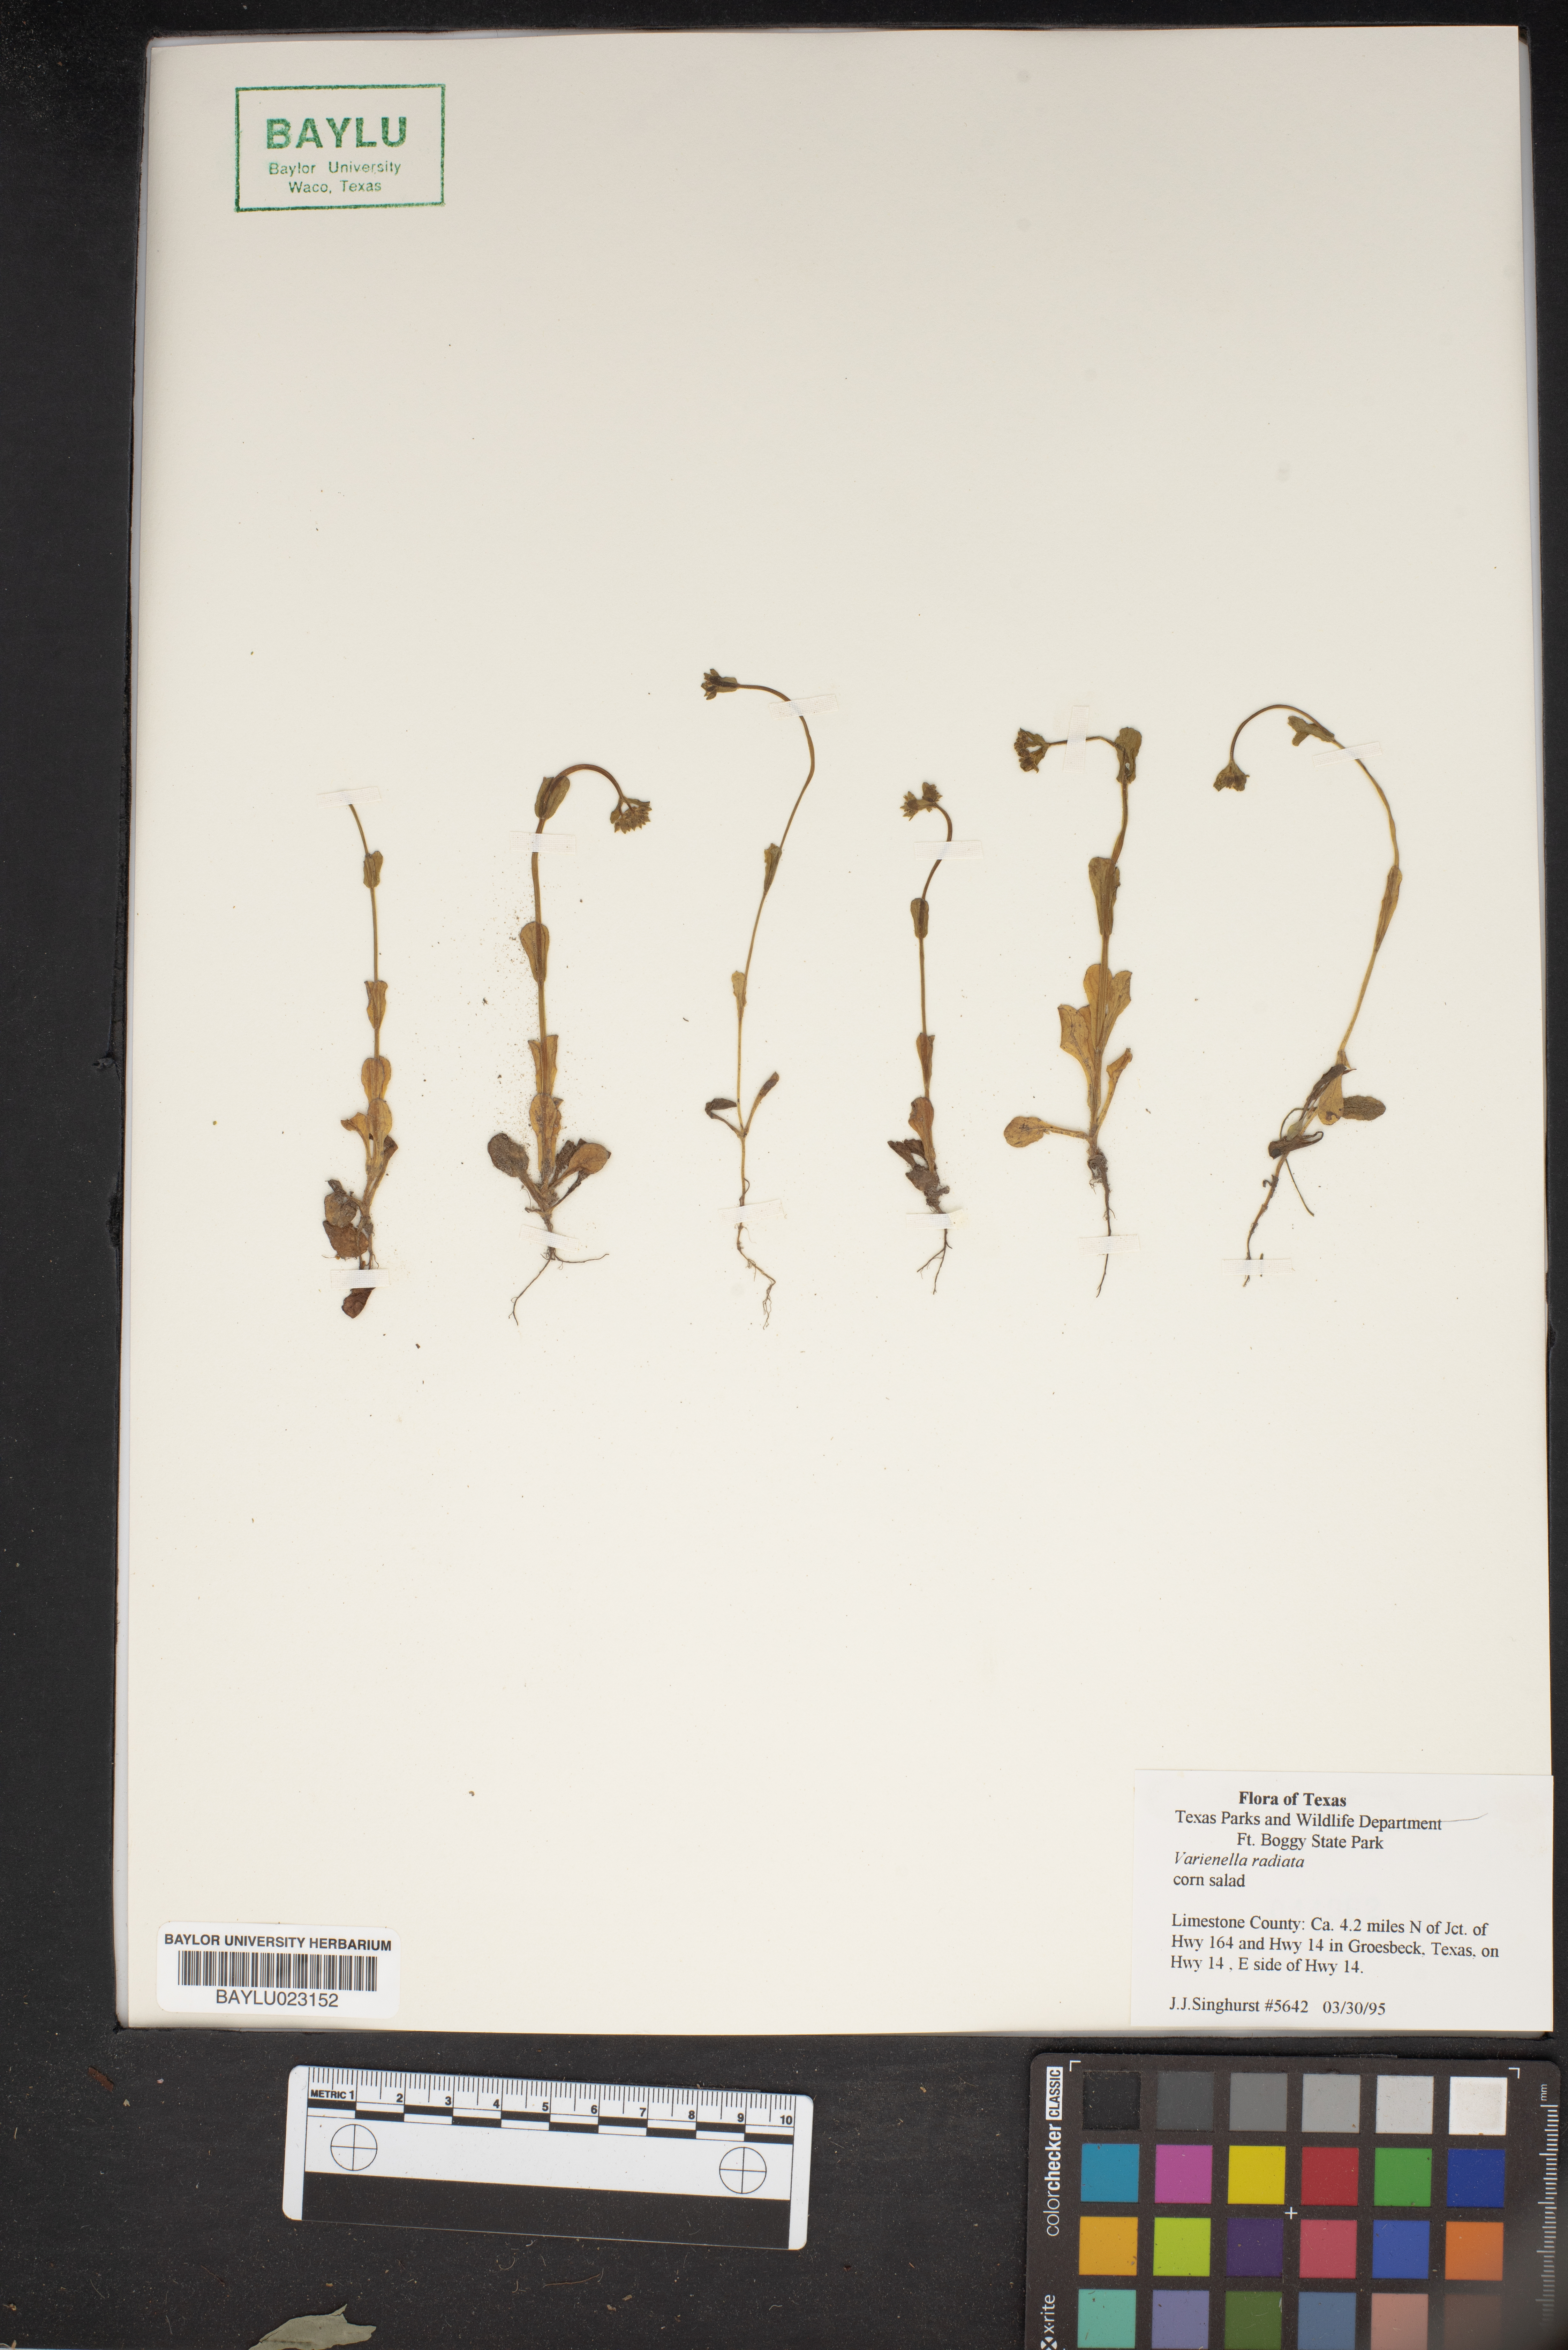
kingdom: Plantae
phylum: Tracheophyta
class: Magnoliopsida
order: Dipsacales
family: Caprifoliaceae
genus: Valerianella
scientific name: Valerianella radiata
